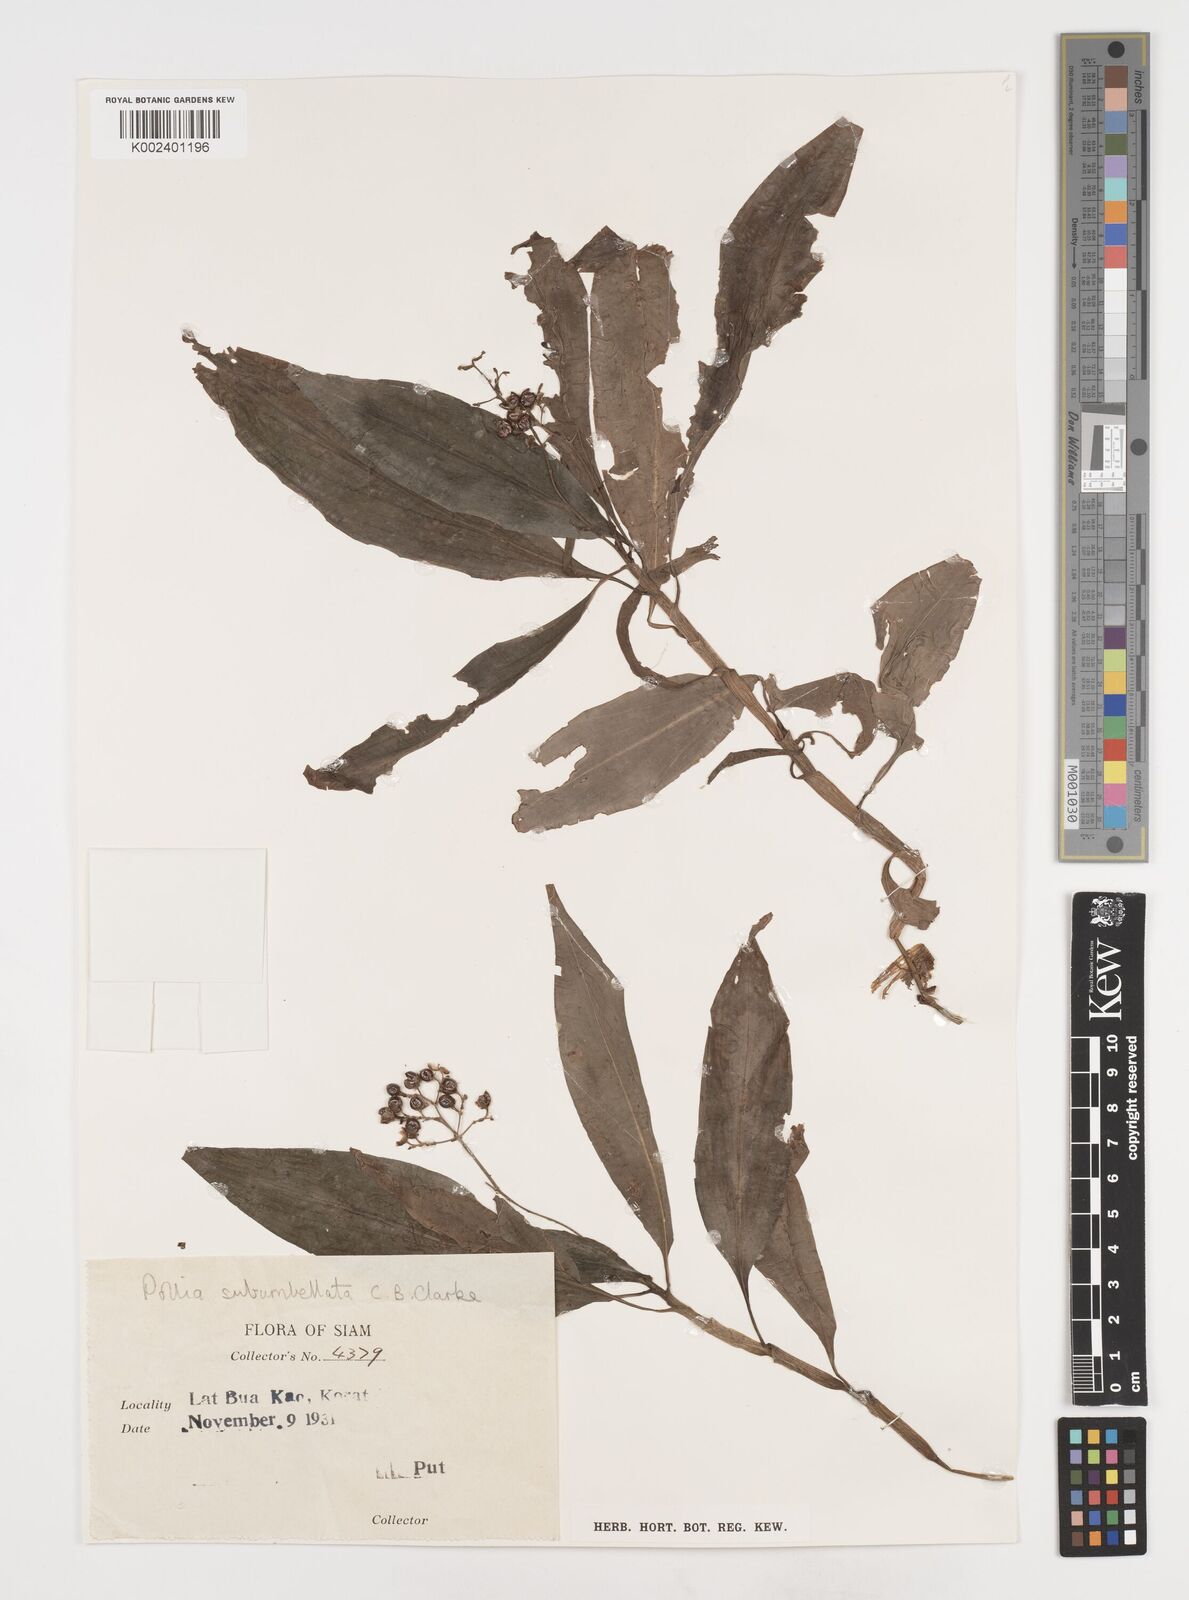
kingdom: Plantae
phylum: Tracheophyta
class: Liliopsida
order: Commelinales
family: Commelinaceae
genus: Pollia
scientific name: Pollia secundiflora
